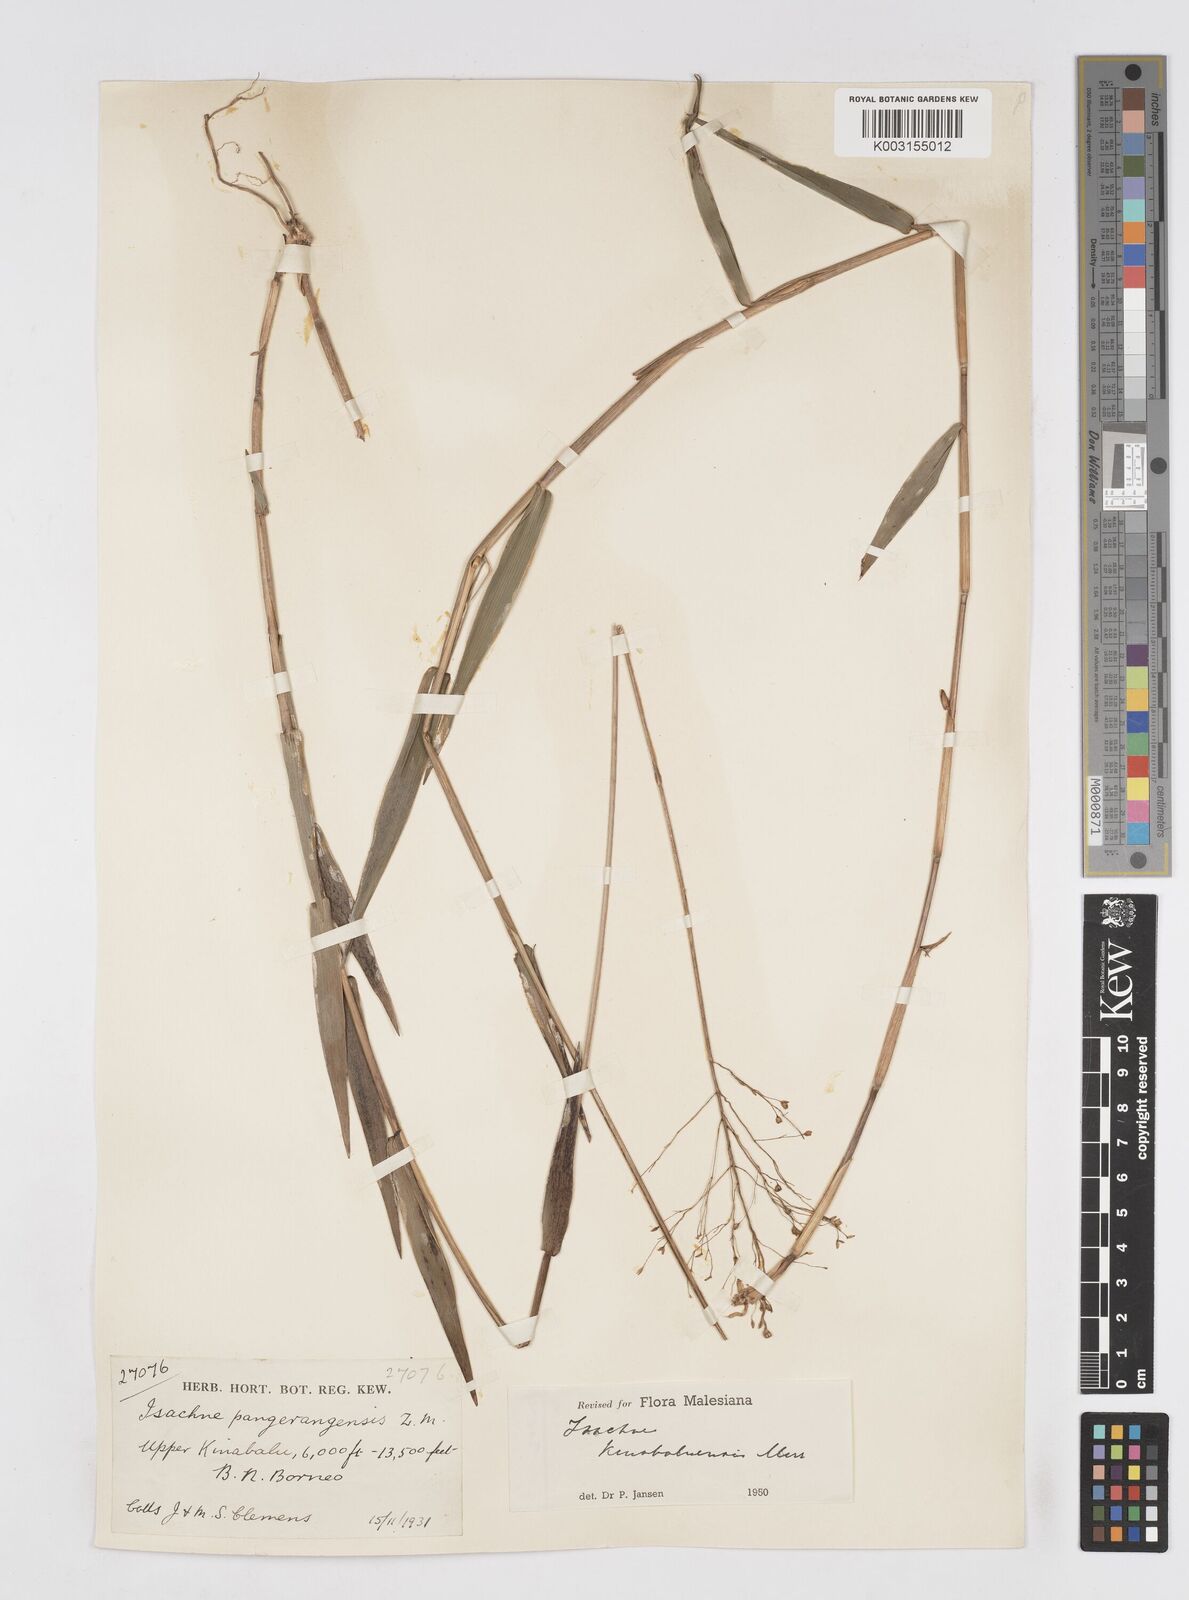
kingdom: Plantae
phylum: Tracheophyta
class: Liliopsida
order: Poales
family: Poaceae
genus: Isachne
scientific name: Isachne kinabaluensis
